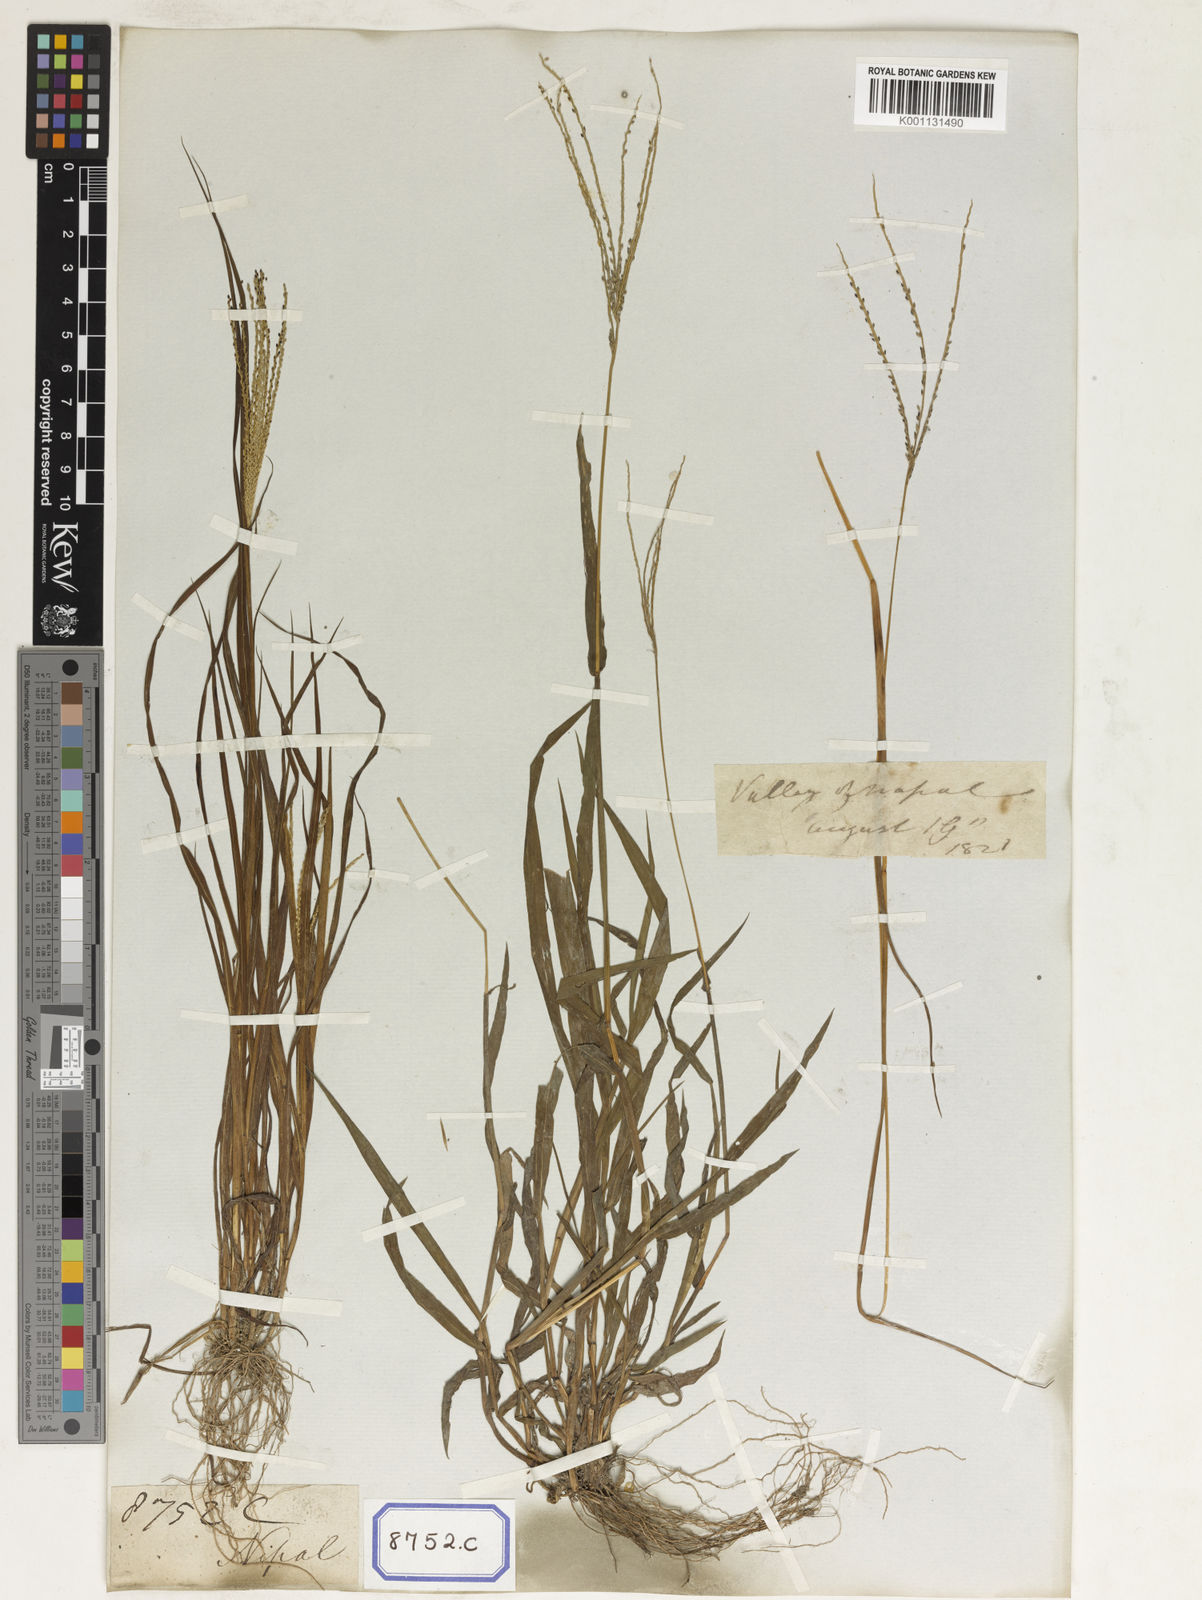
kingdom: Plantae
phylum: Tracheophyta
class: Liliopsida
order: Poales
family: Poaceae
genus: Paspalum
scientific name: Paspalum
